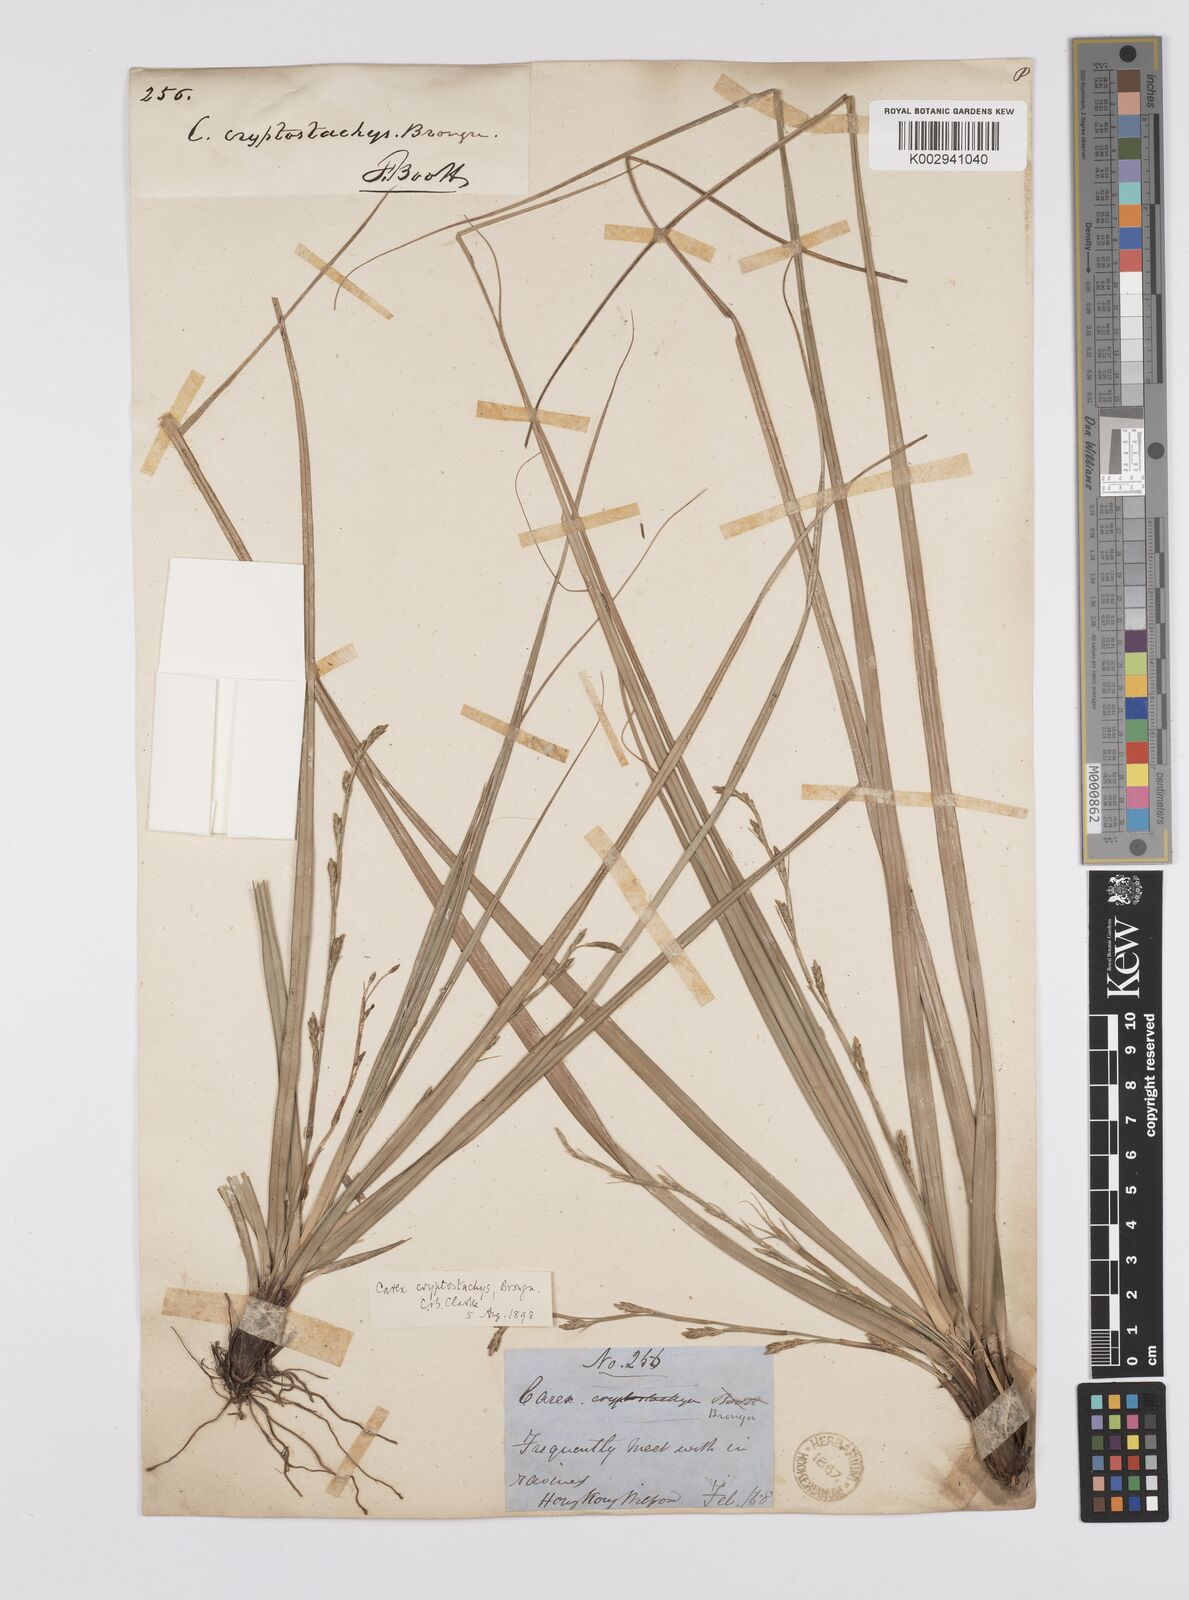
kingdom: Plantae
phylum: Tracheophyta
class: Liliopsida
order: Poales
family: Cyperaceae
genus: Carex
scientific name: Carex cryptostachys
